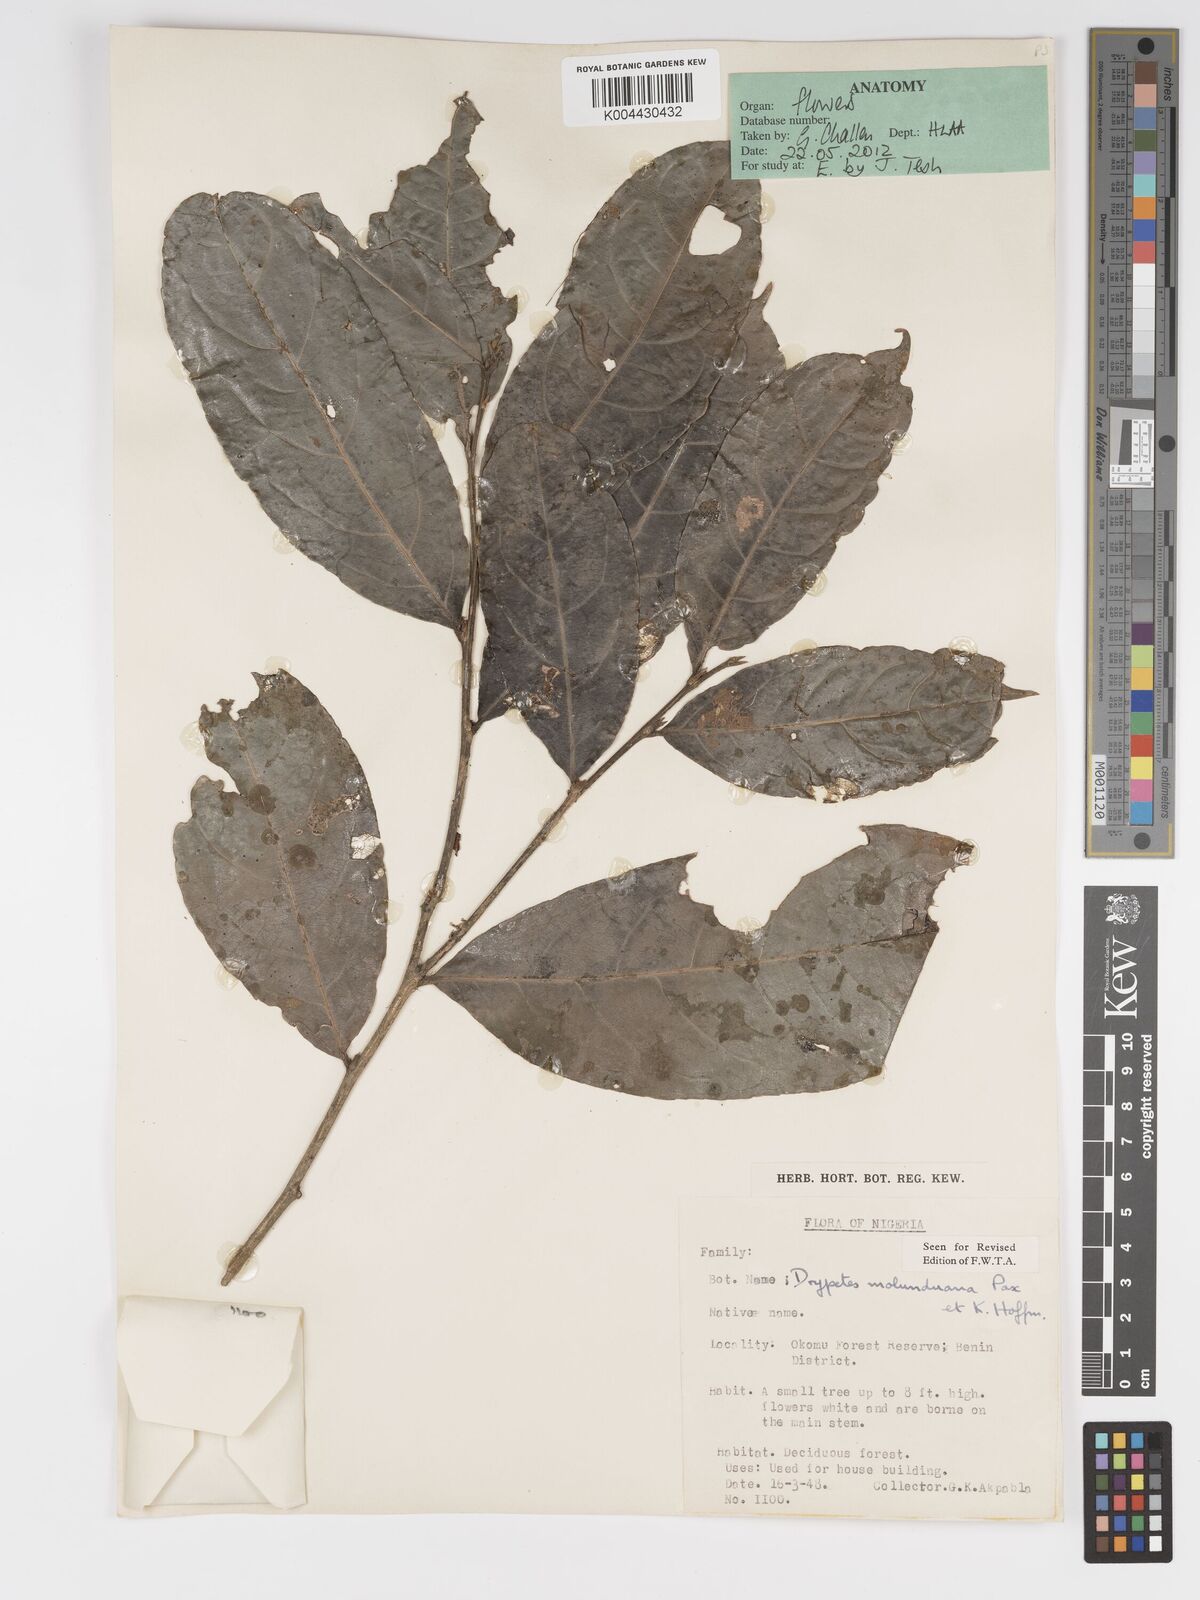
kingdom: Plantae
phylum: Tracheophyta
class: Magnoliopsida
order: Malpighiales
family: Putranjivaceae
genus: Drypetes
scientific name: Drypetes molunduana
